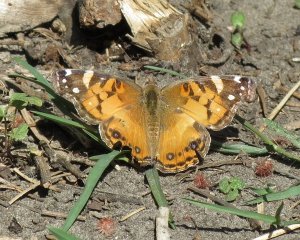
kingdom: Animalia
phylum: Arthropoda
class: Insecta
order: Lepidoptera
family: Nymphalidae
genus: Vanessa
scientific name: Vanessa virginiensis
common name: American Lady
